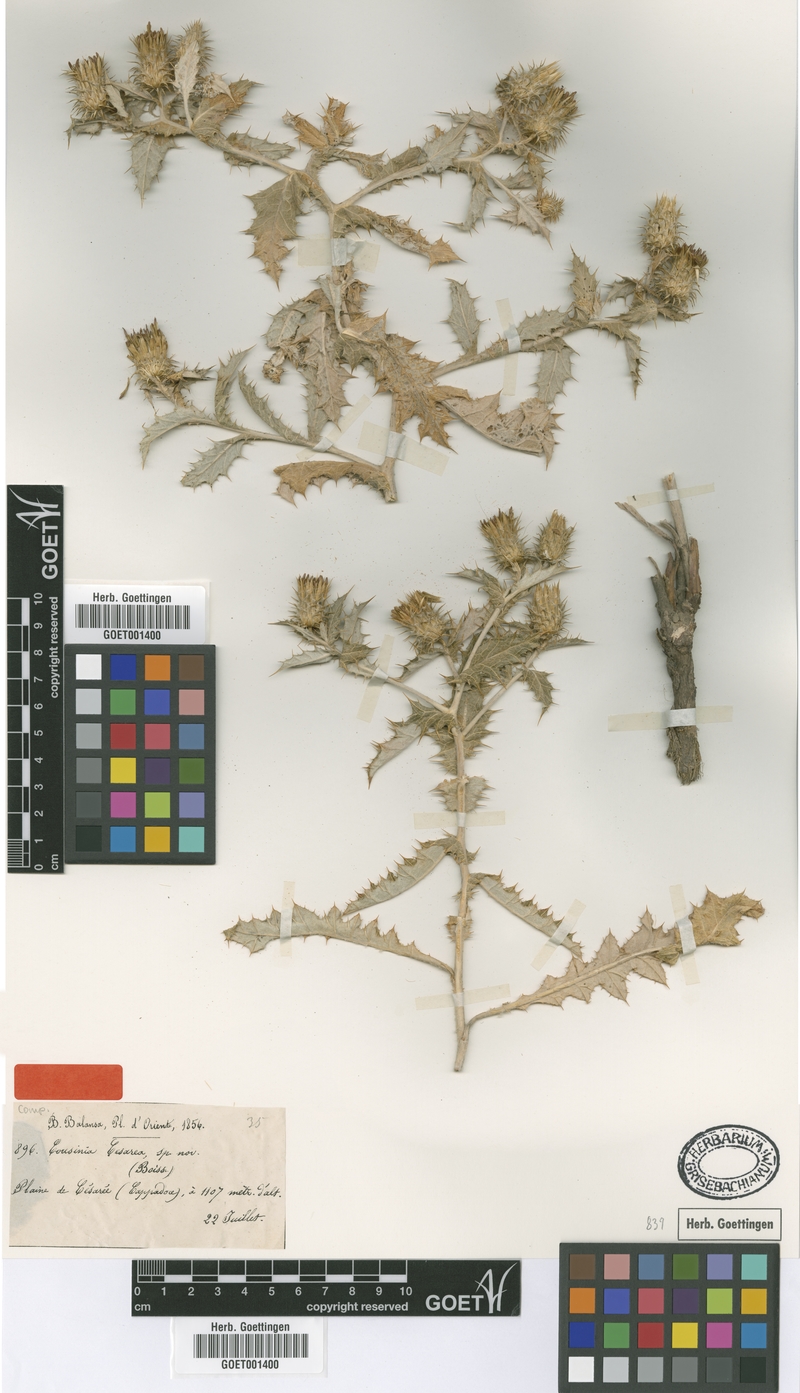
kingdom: Plantae
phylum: Tracheophyta
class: Magnoliopsida
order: Asterales
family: Asteraceae
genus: Cousinia
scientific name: Cousinia caesarea
